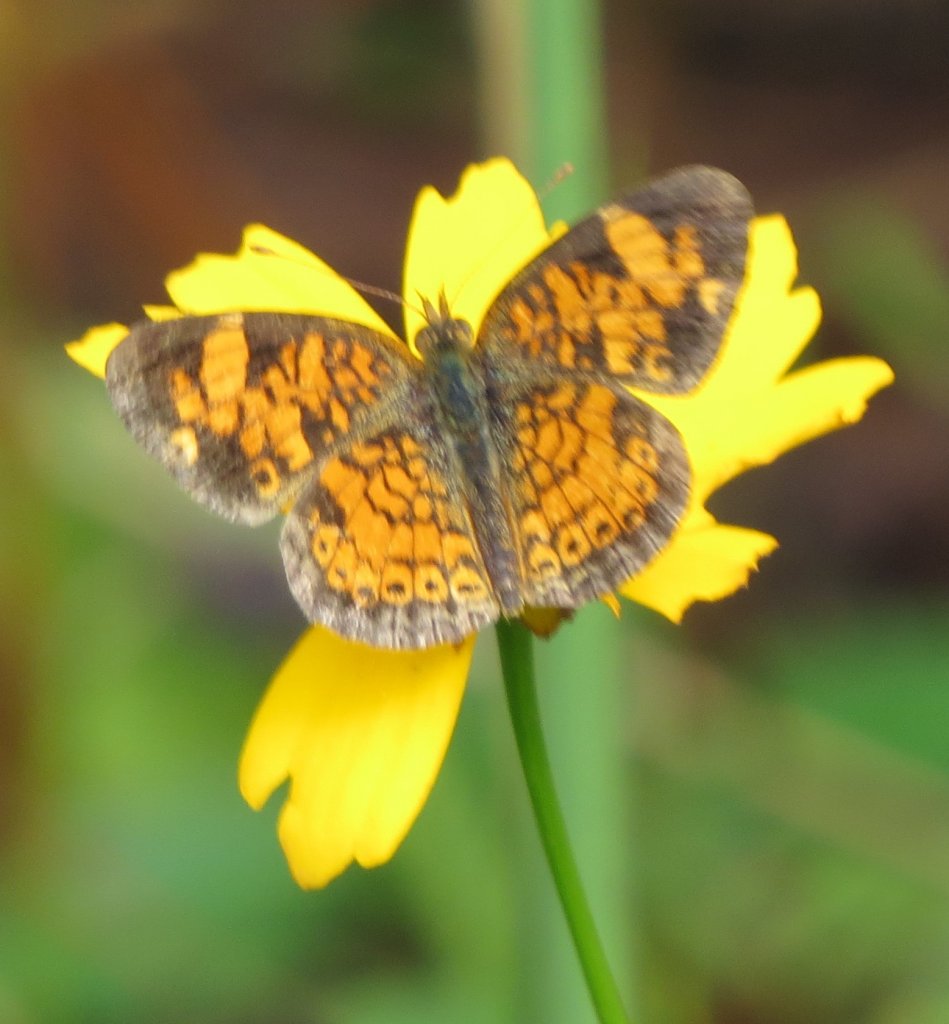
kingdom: Animalia
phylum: Arthropoda
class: Insecta
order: Lepidoptera
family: Nymphalidae
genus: Phyciodes
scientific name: Phyciodes tharos
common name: Pearl Crescent
